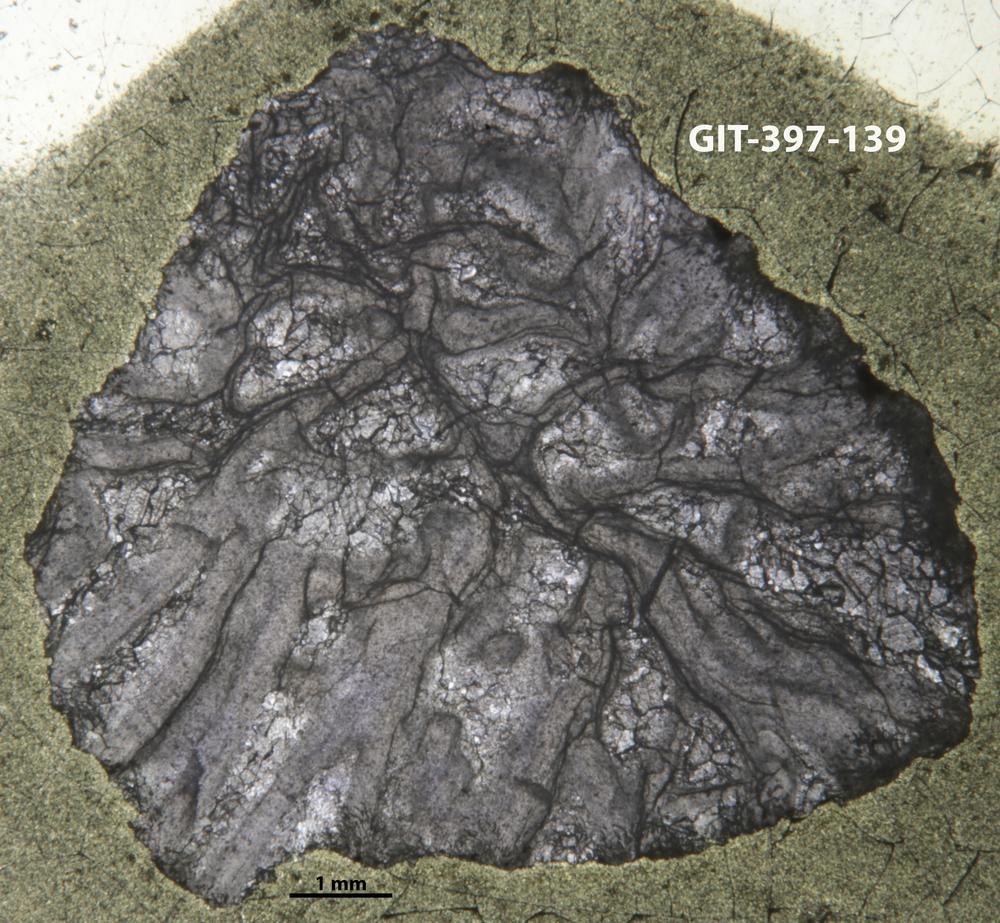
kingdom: Animalia
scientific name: Animalia
